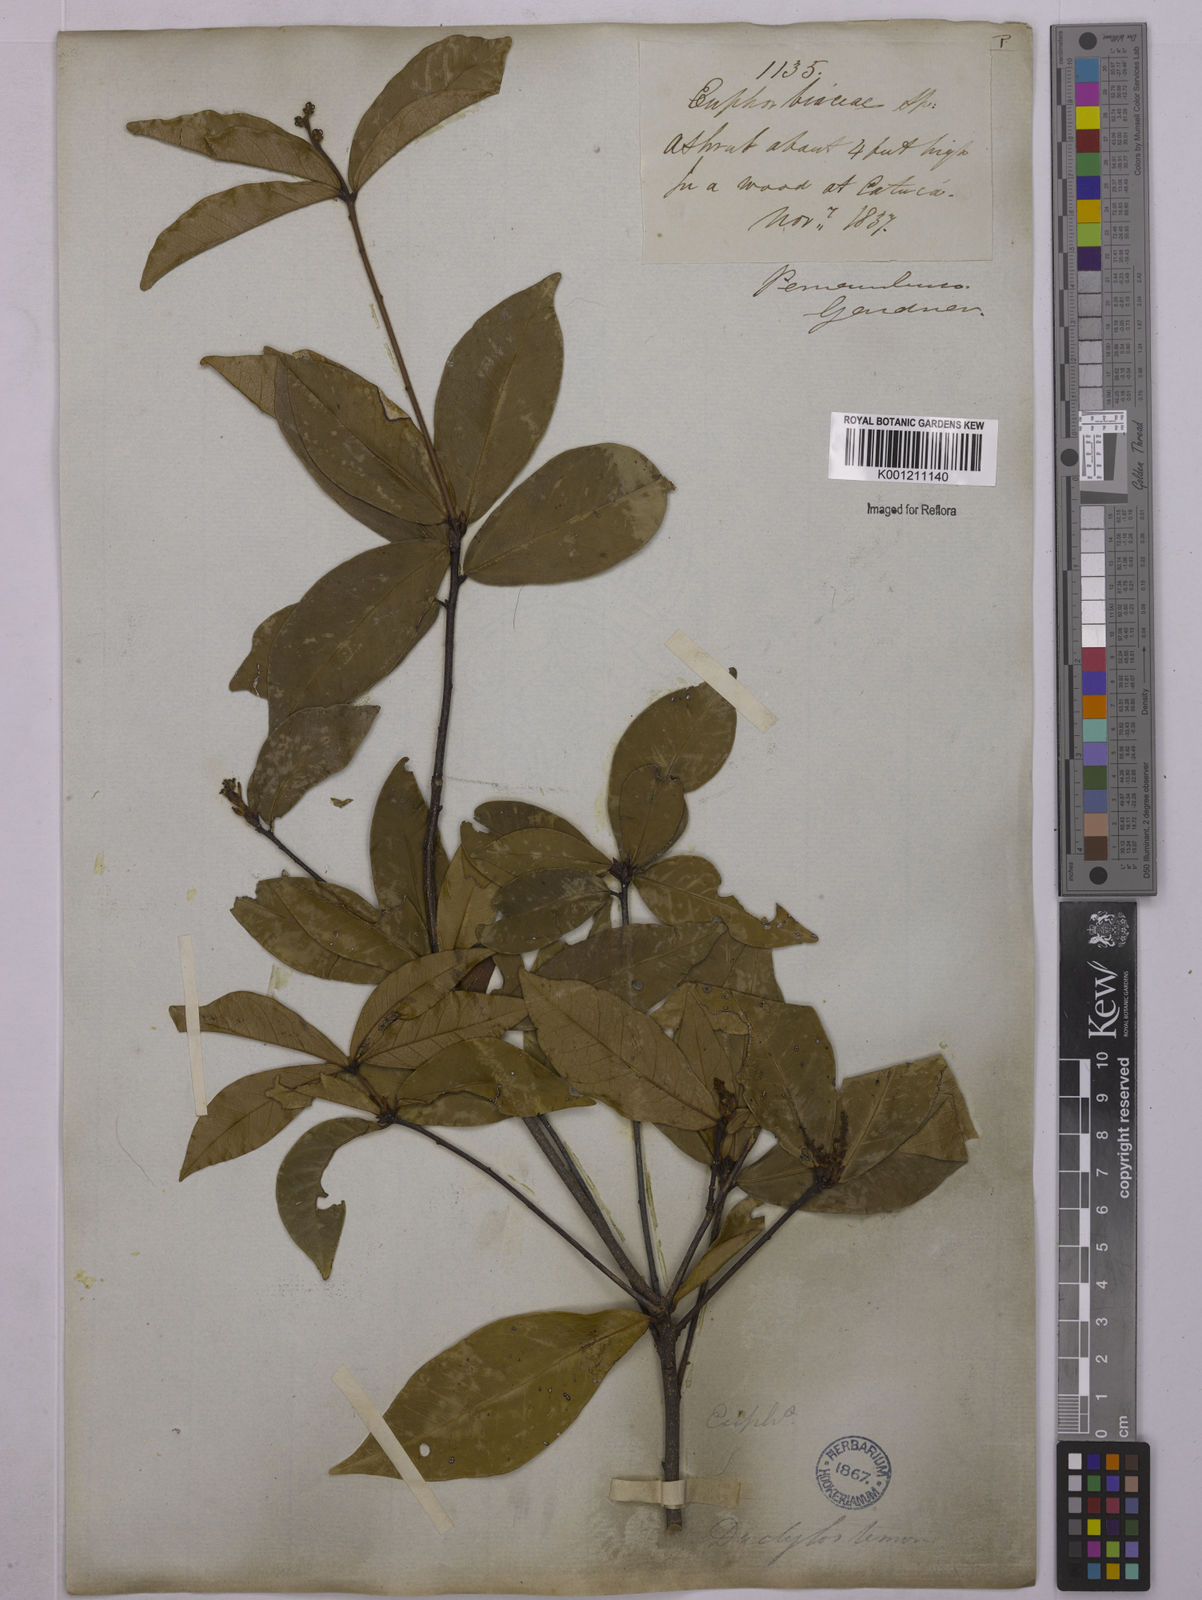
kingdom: Plantae
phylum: Tracheophyta
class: Magnoliopsida
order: Malpighiales
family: Euphorbiaceae
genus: Actinostemon
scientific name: Actinostemon verticillatus
